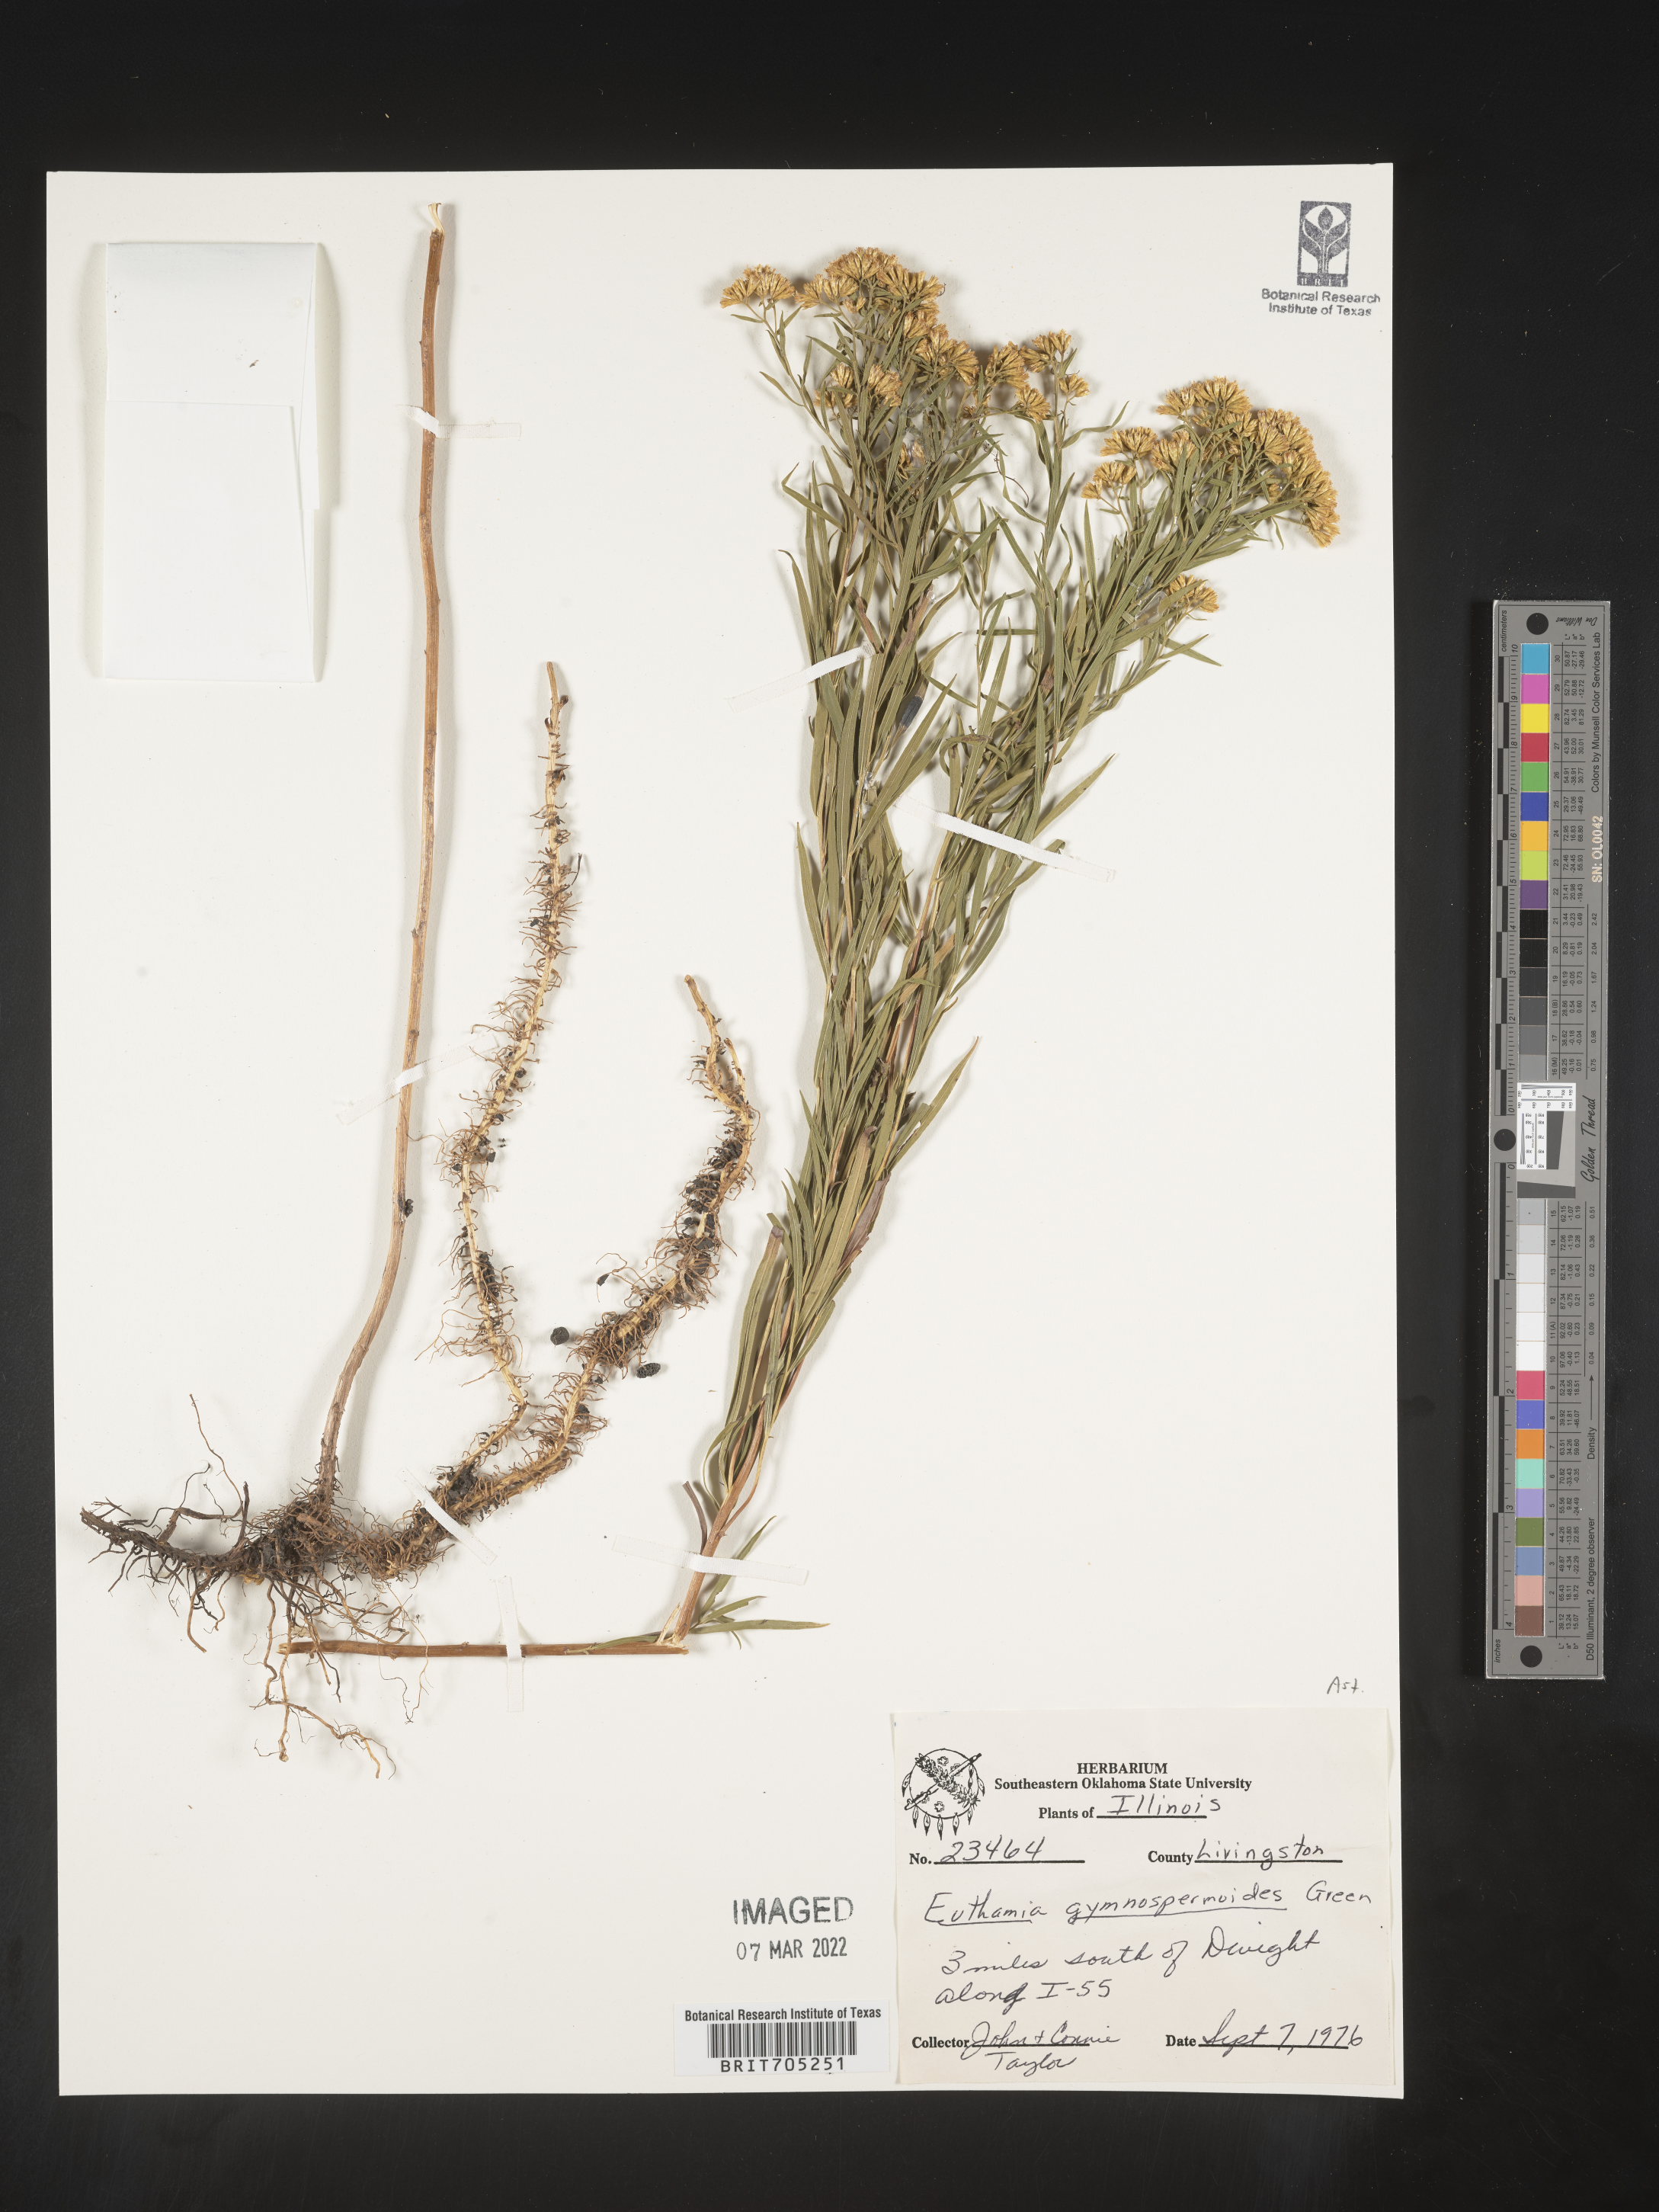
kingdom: Plantae
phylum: Tracheophyta
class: Magnoliopsida
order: Asterales
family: Asteraceae
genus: Euthamia
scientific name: Euthamia gymnospermoides
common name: Great plains goldentop
